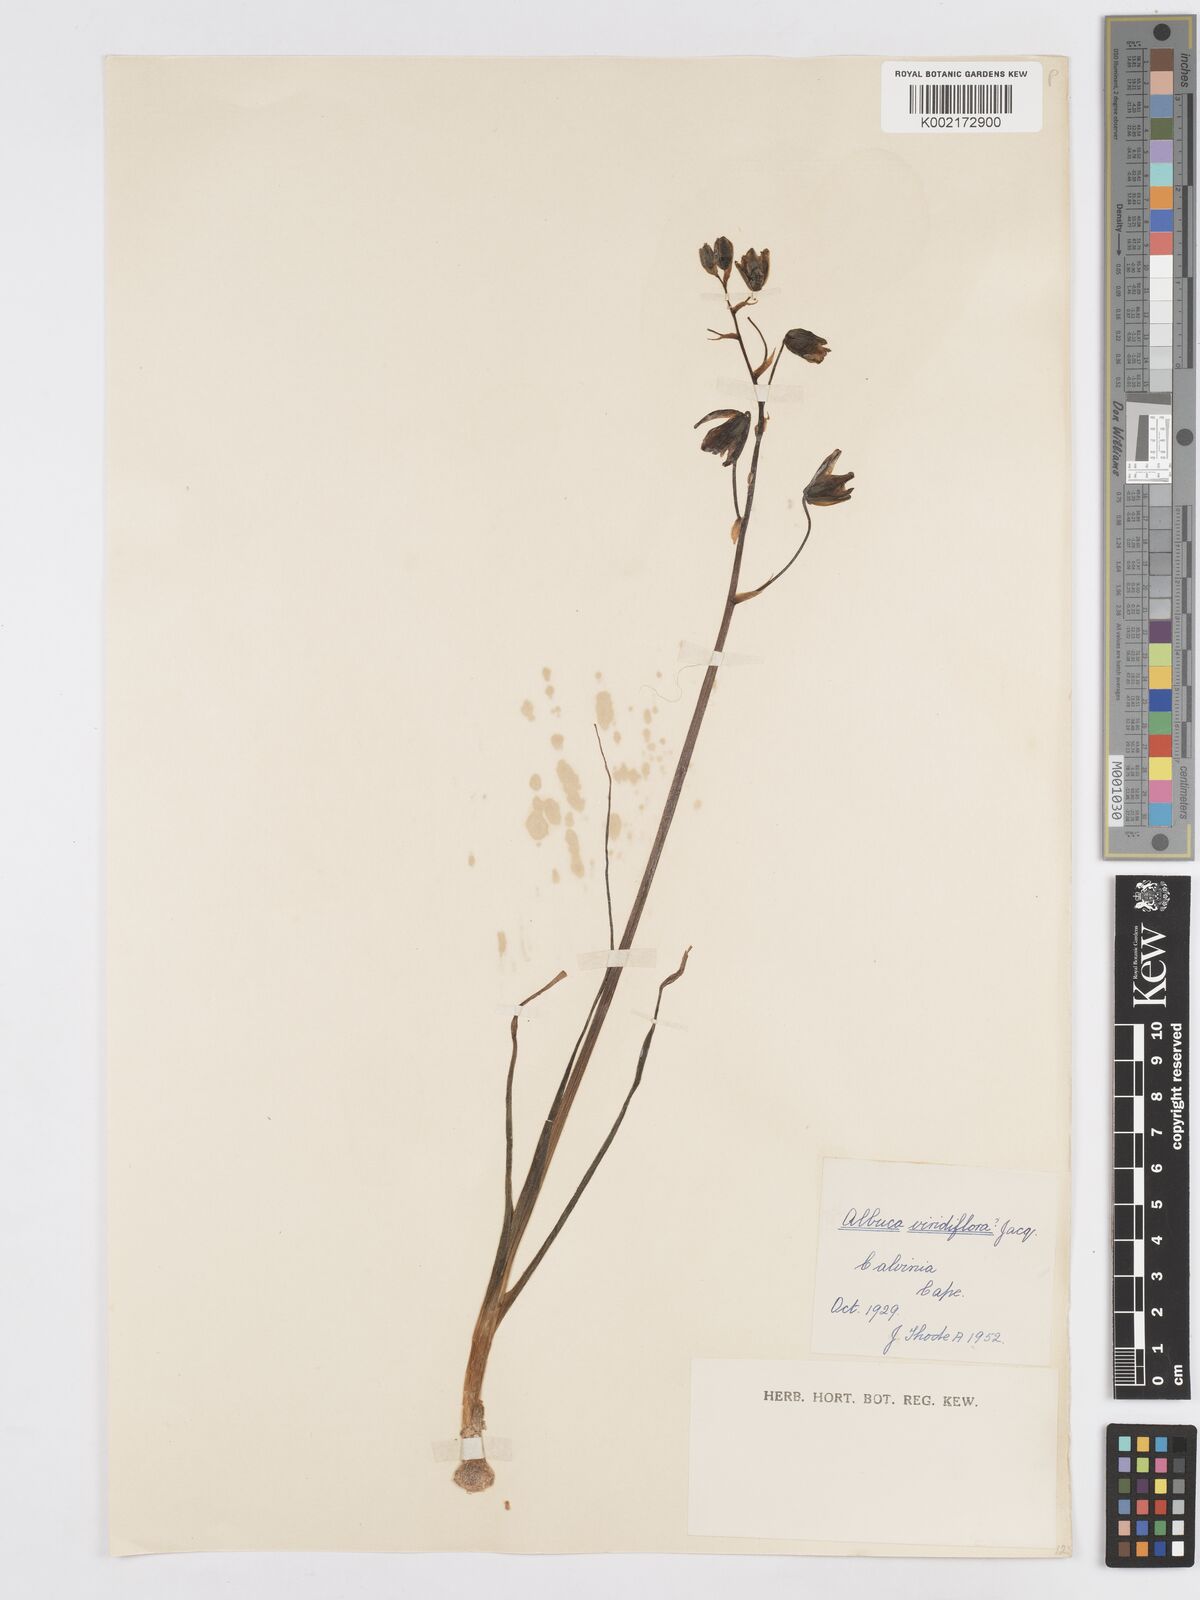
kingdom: Plantae
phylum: Tracheophyta
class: Liliopsida
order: Asparagales
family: Asparagaceae
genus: Albuca
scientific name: Albuca viridiflora
